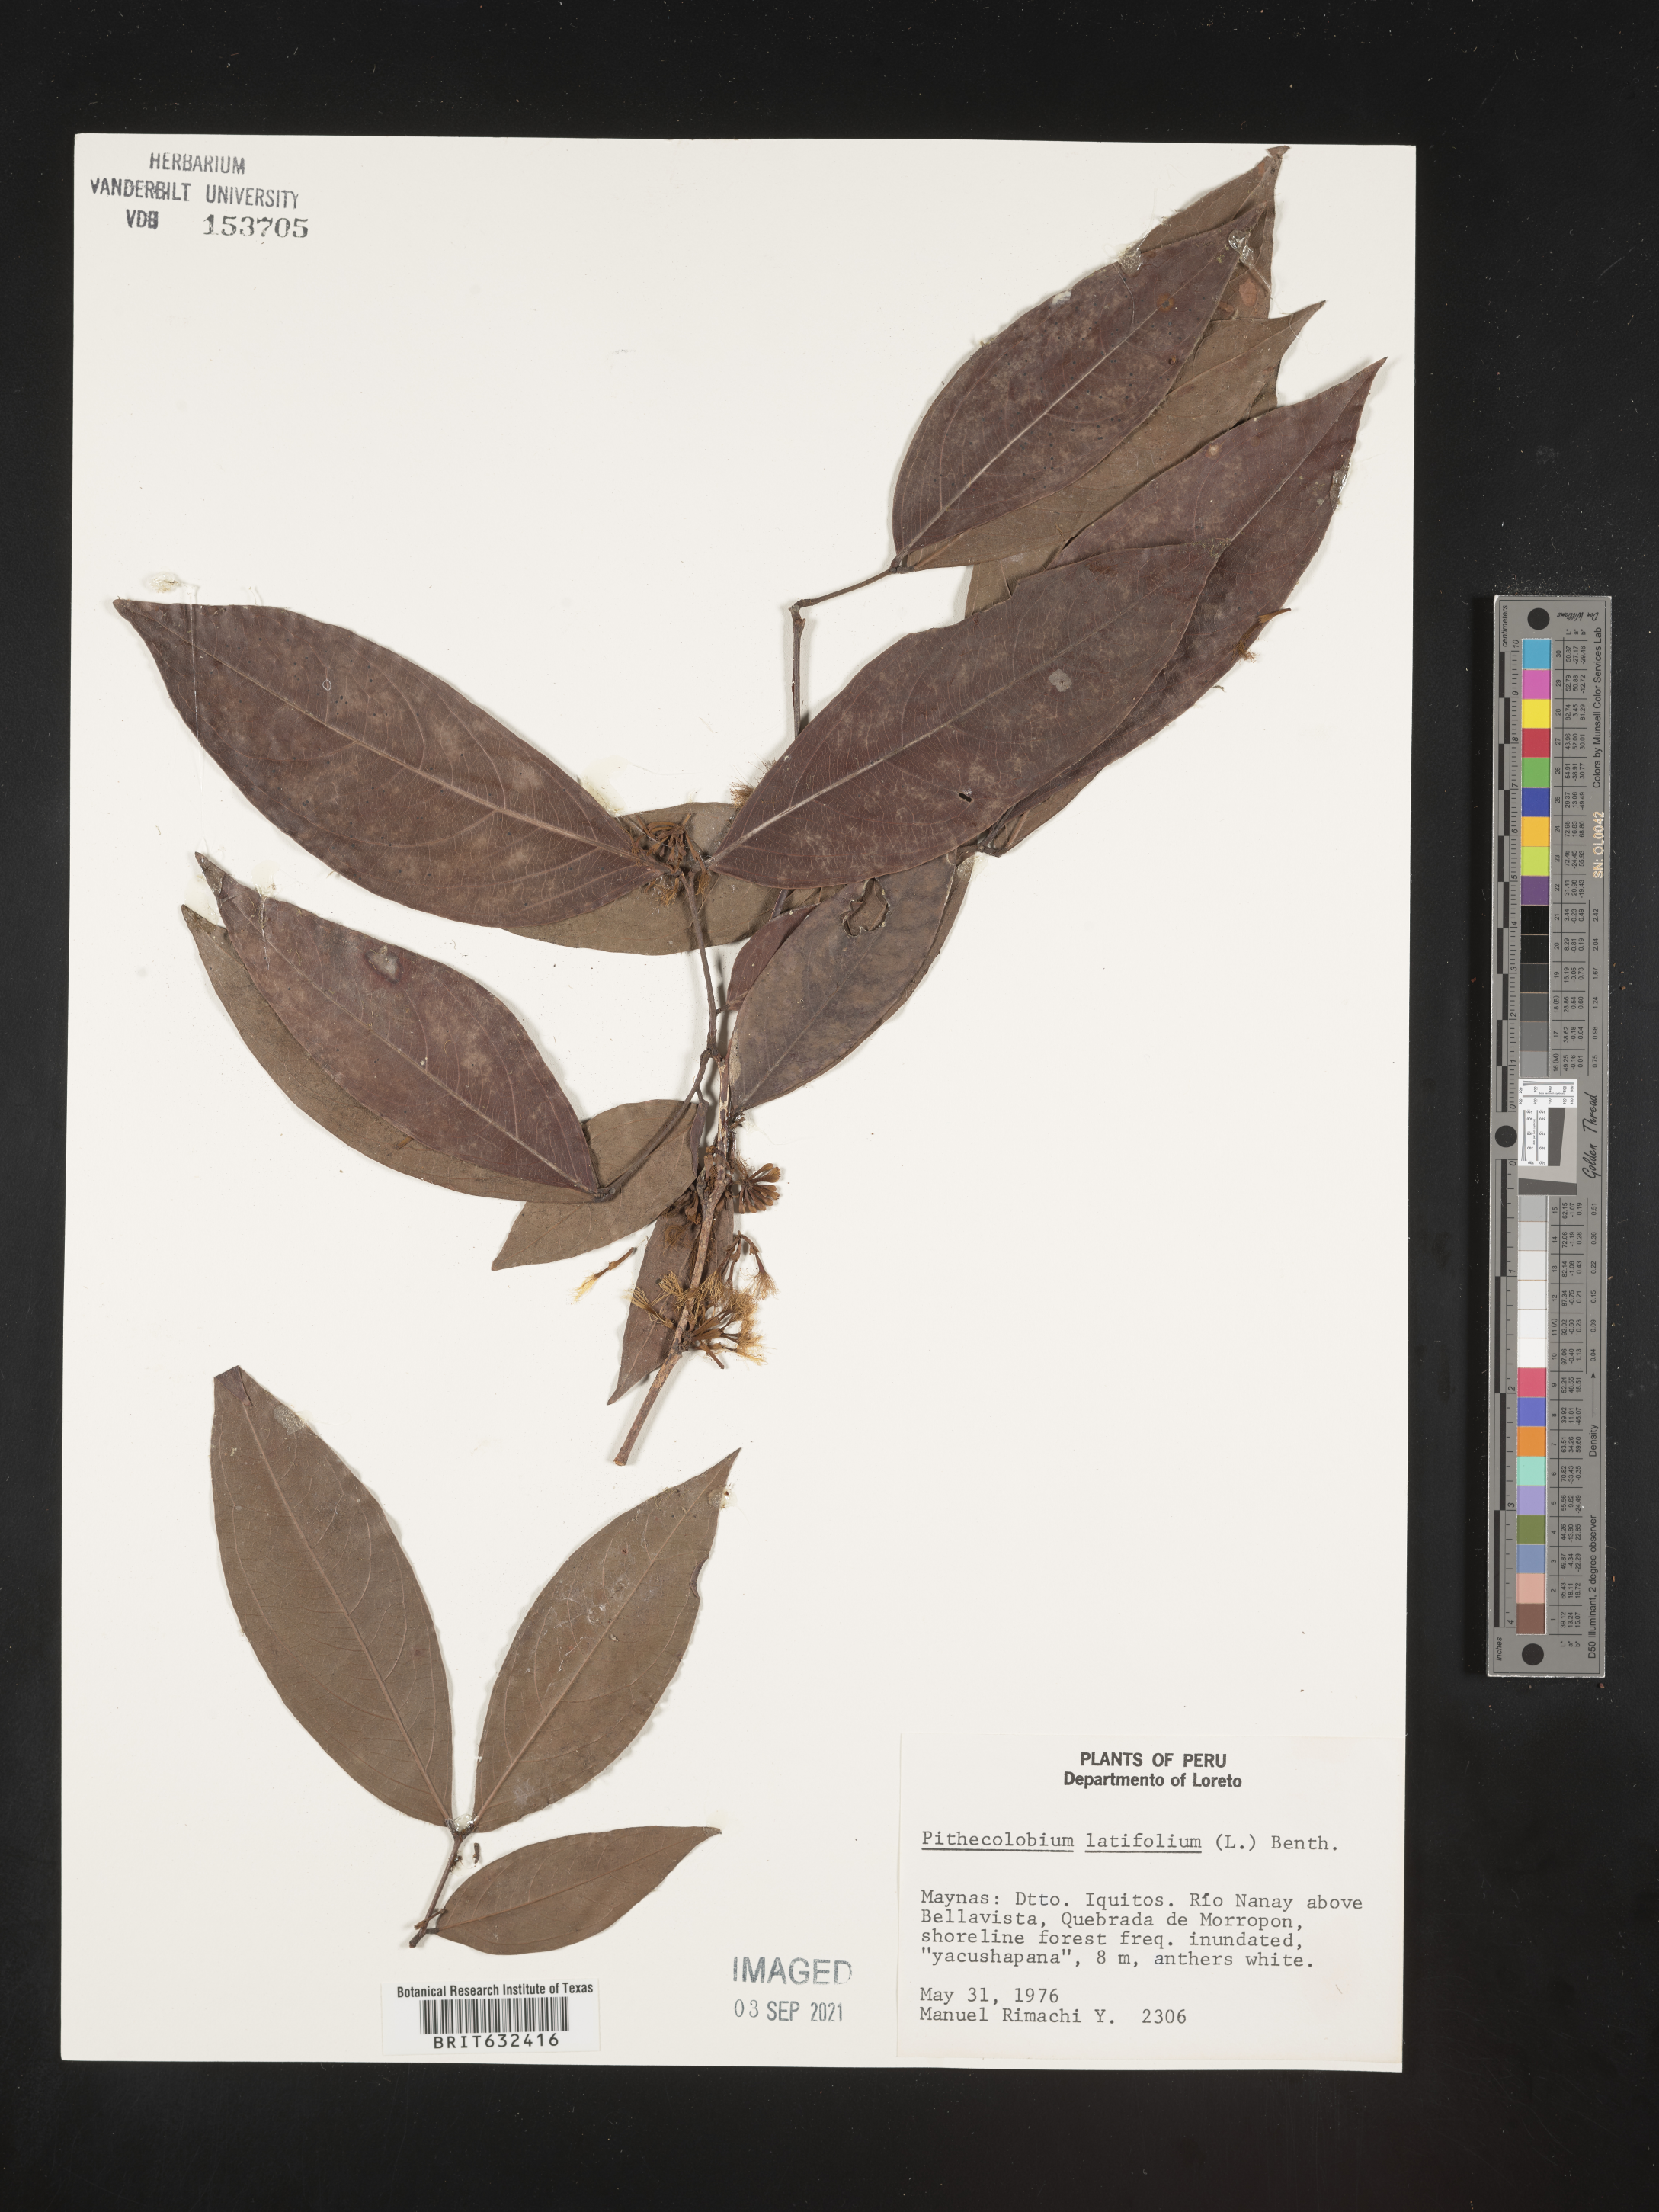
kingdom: Plantae
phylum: Tracheophyta
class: Magnoliopsida
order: Fabales
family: Fabaceae
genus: Pithecellobium
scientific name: Pithecellobium
